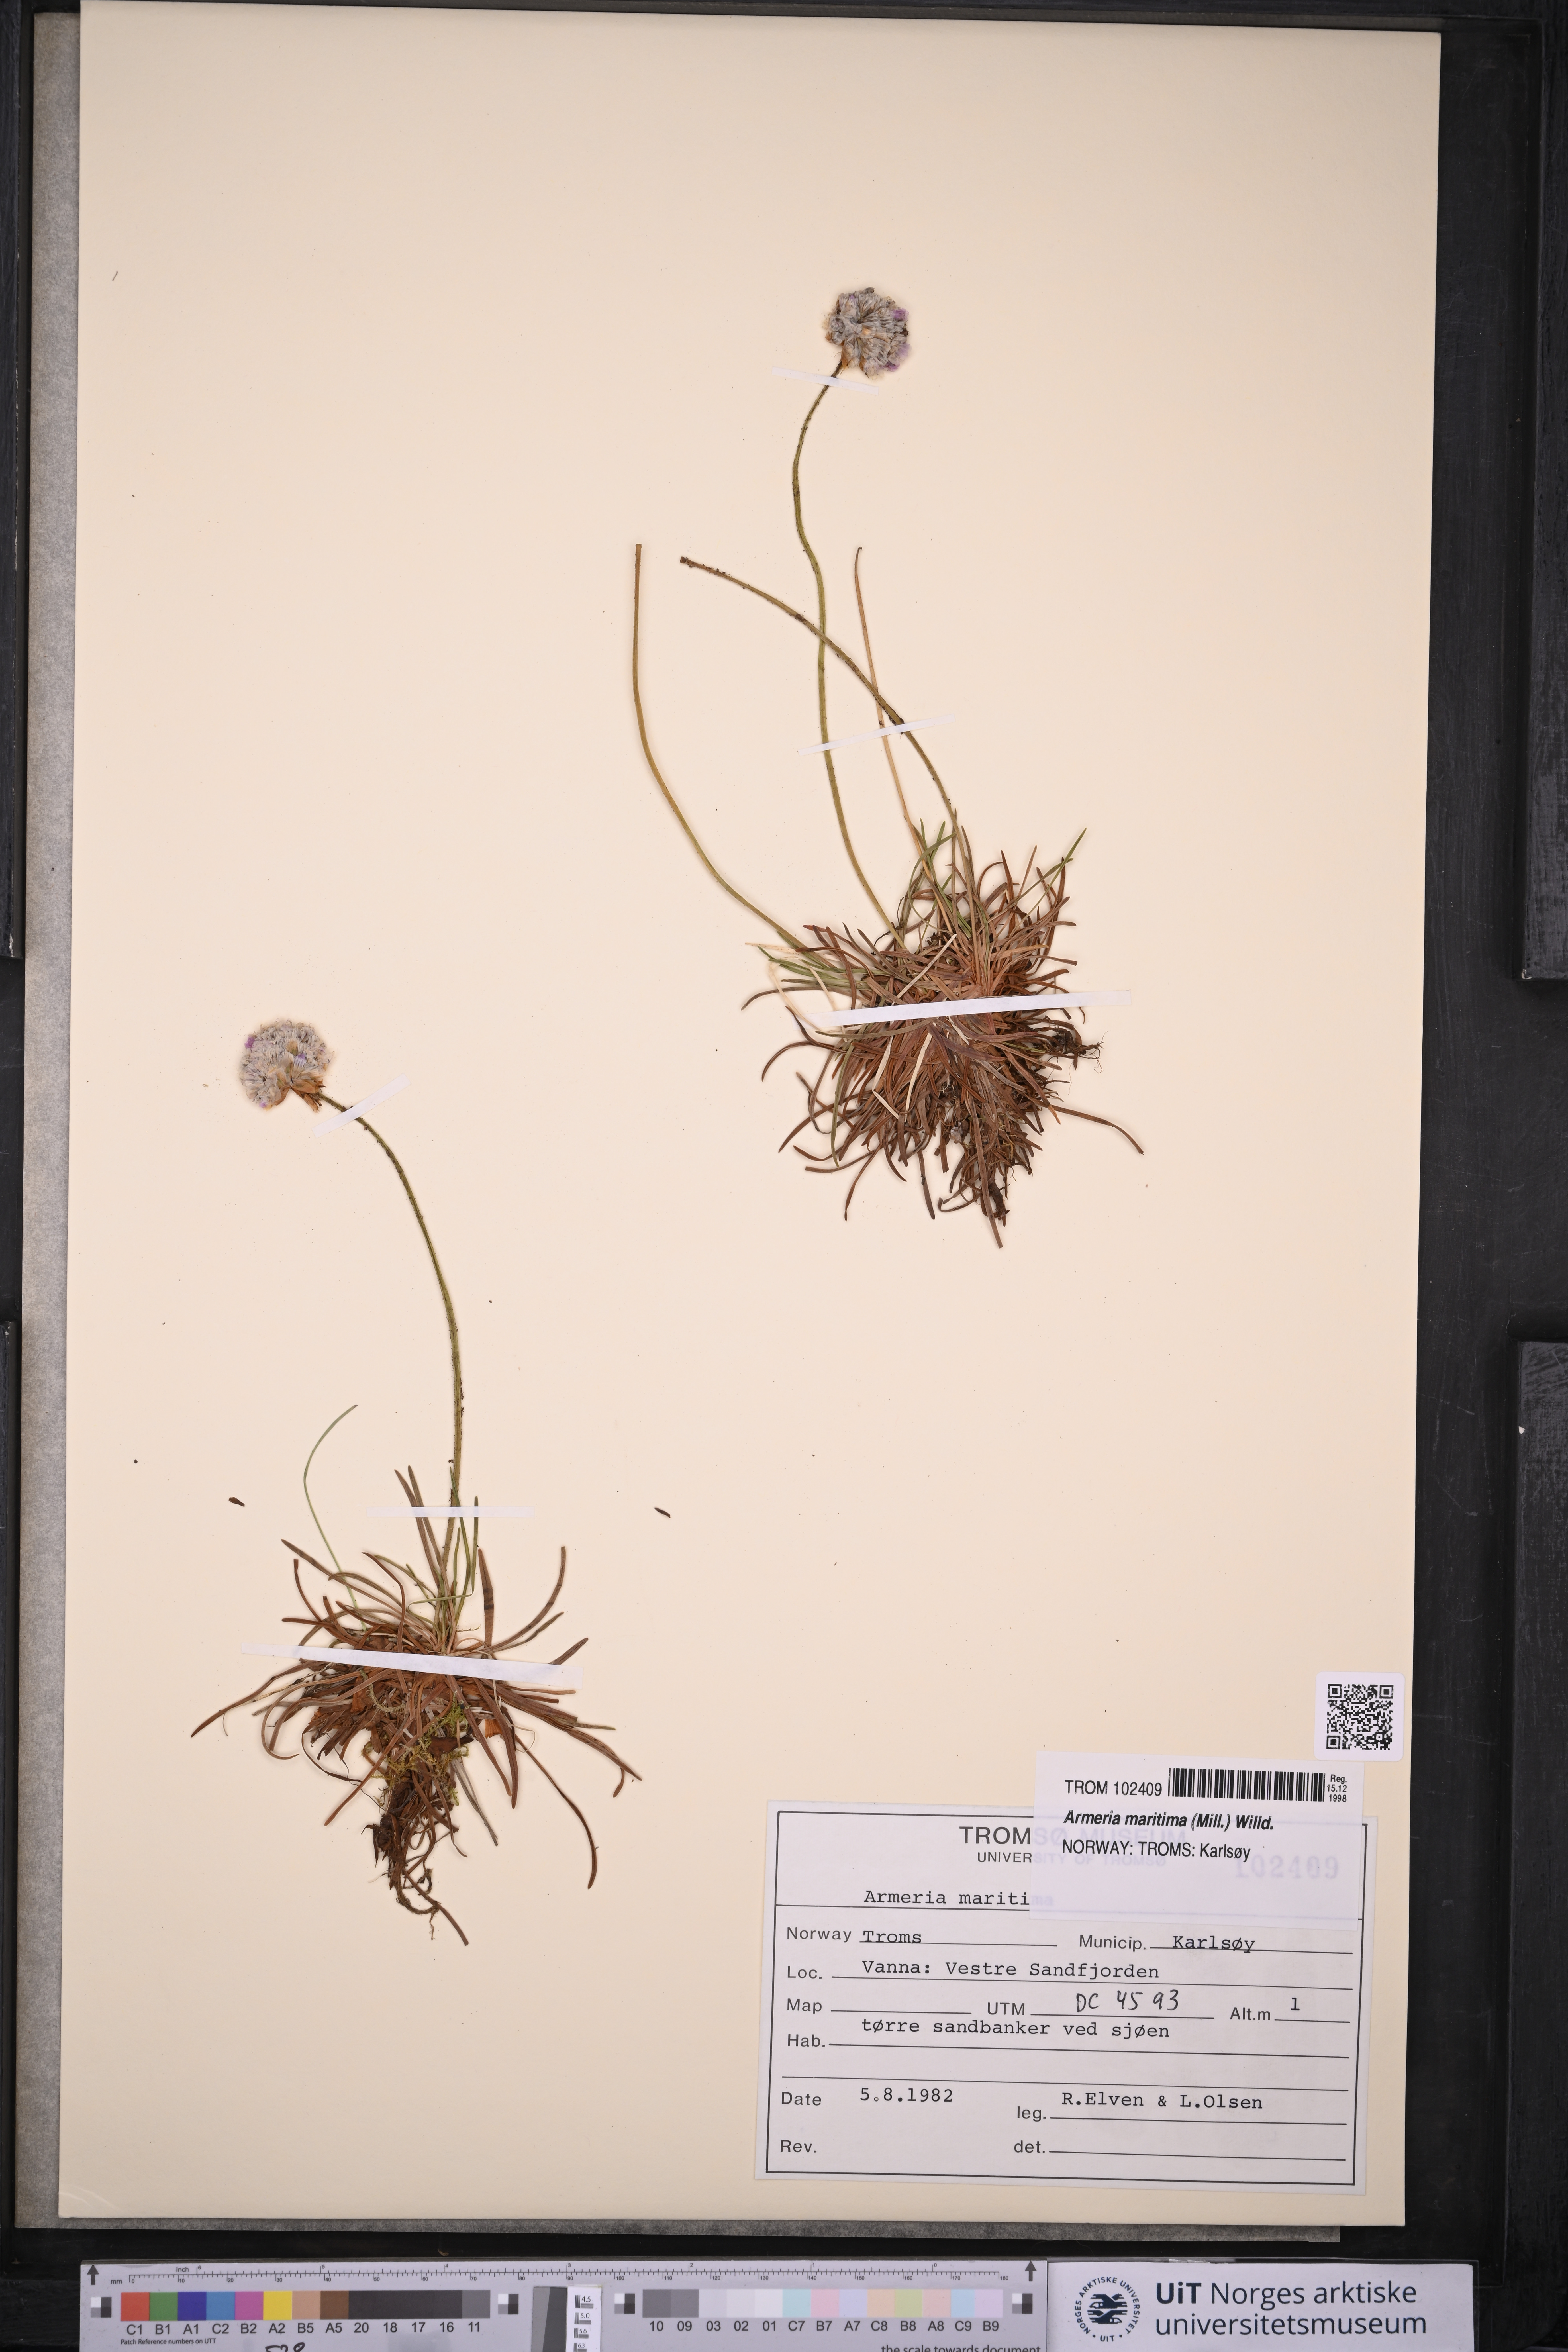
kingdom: Plantae
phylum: Tracheophyta
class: Magnoliopsida
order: Caryophyllales
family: Plumbaginaceae
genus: Armeria
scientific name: Armeria maritima
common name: Thrift
